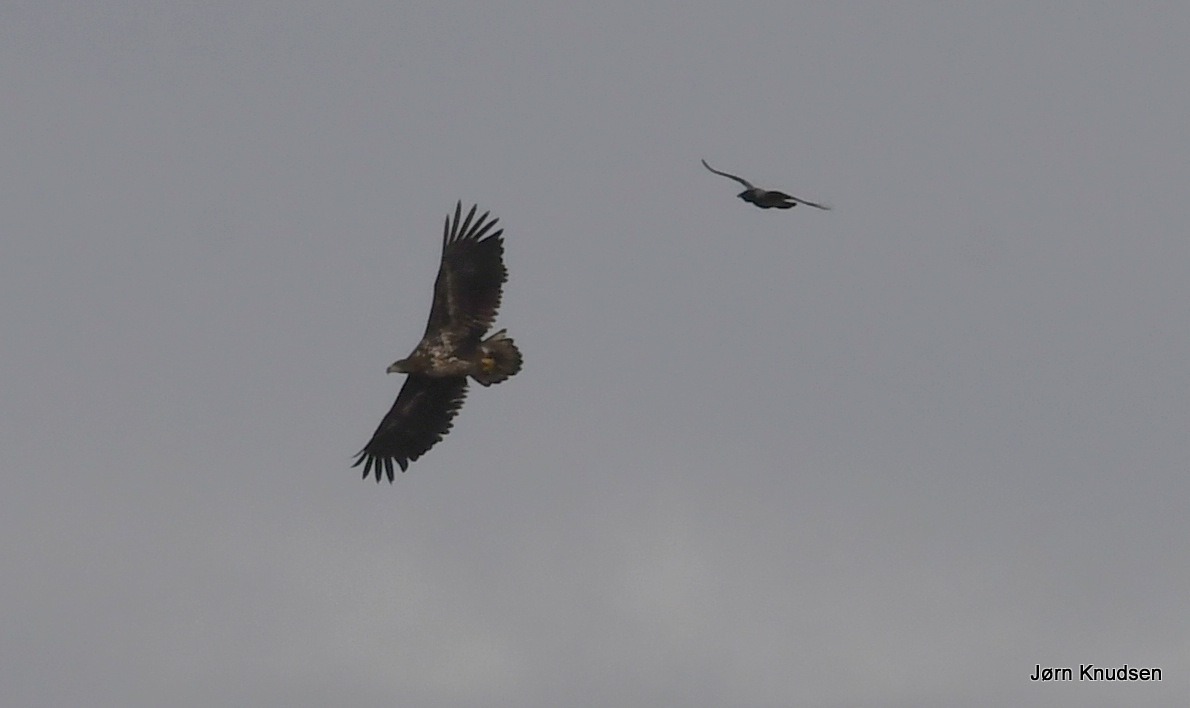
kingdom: Animalia
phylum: Chordata
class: Aves
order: Accipitriformes
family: Accipitridae
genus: Haliaeetus
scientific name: Haliaeetus albicilla
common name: Havørn
